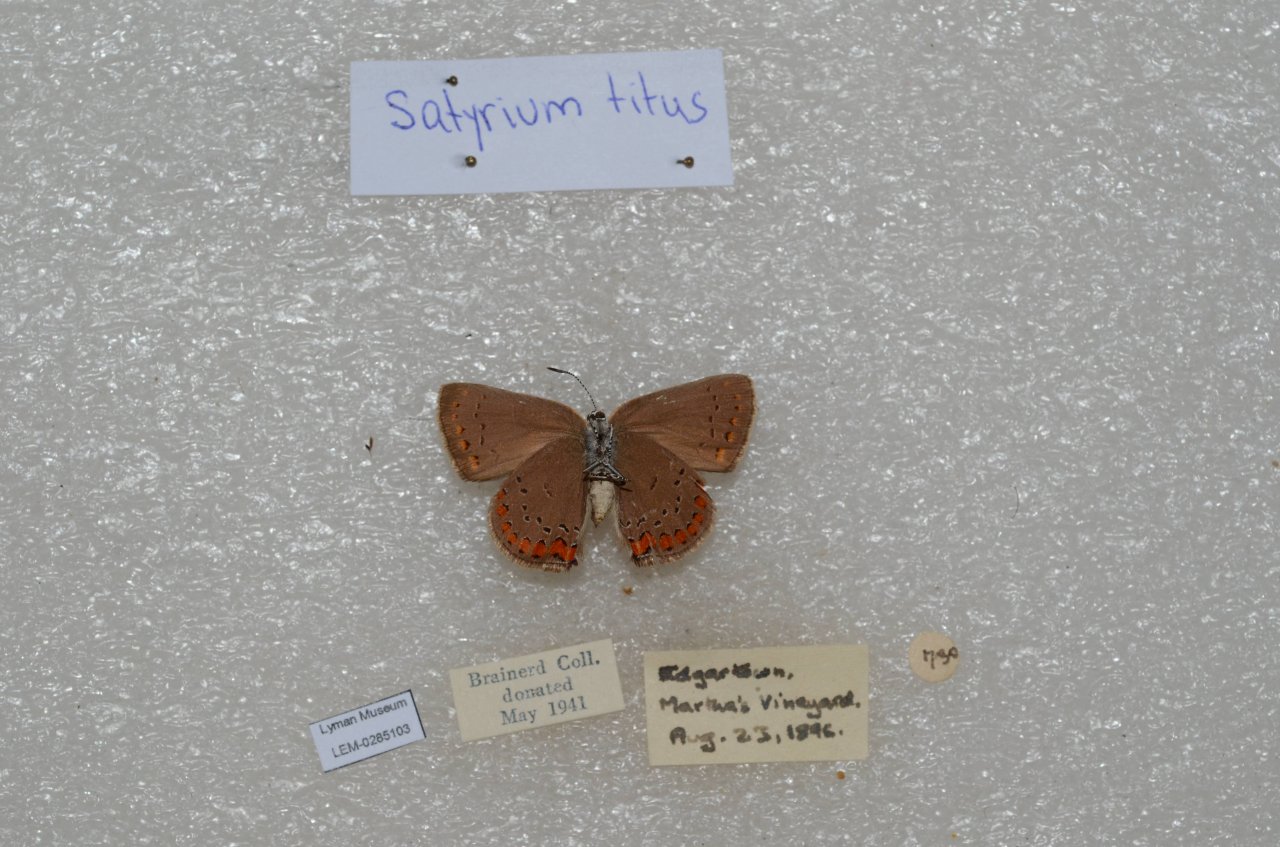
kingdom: Animalia
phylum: Arthropoda
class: Insecta
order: Lepidoptera
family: Lycaenidae
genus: Harkenclenus
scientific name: Harkenclenus titus
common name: Coral Hairstreak
